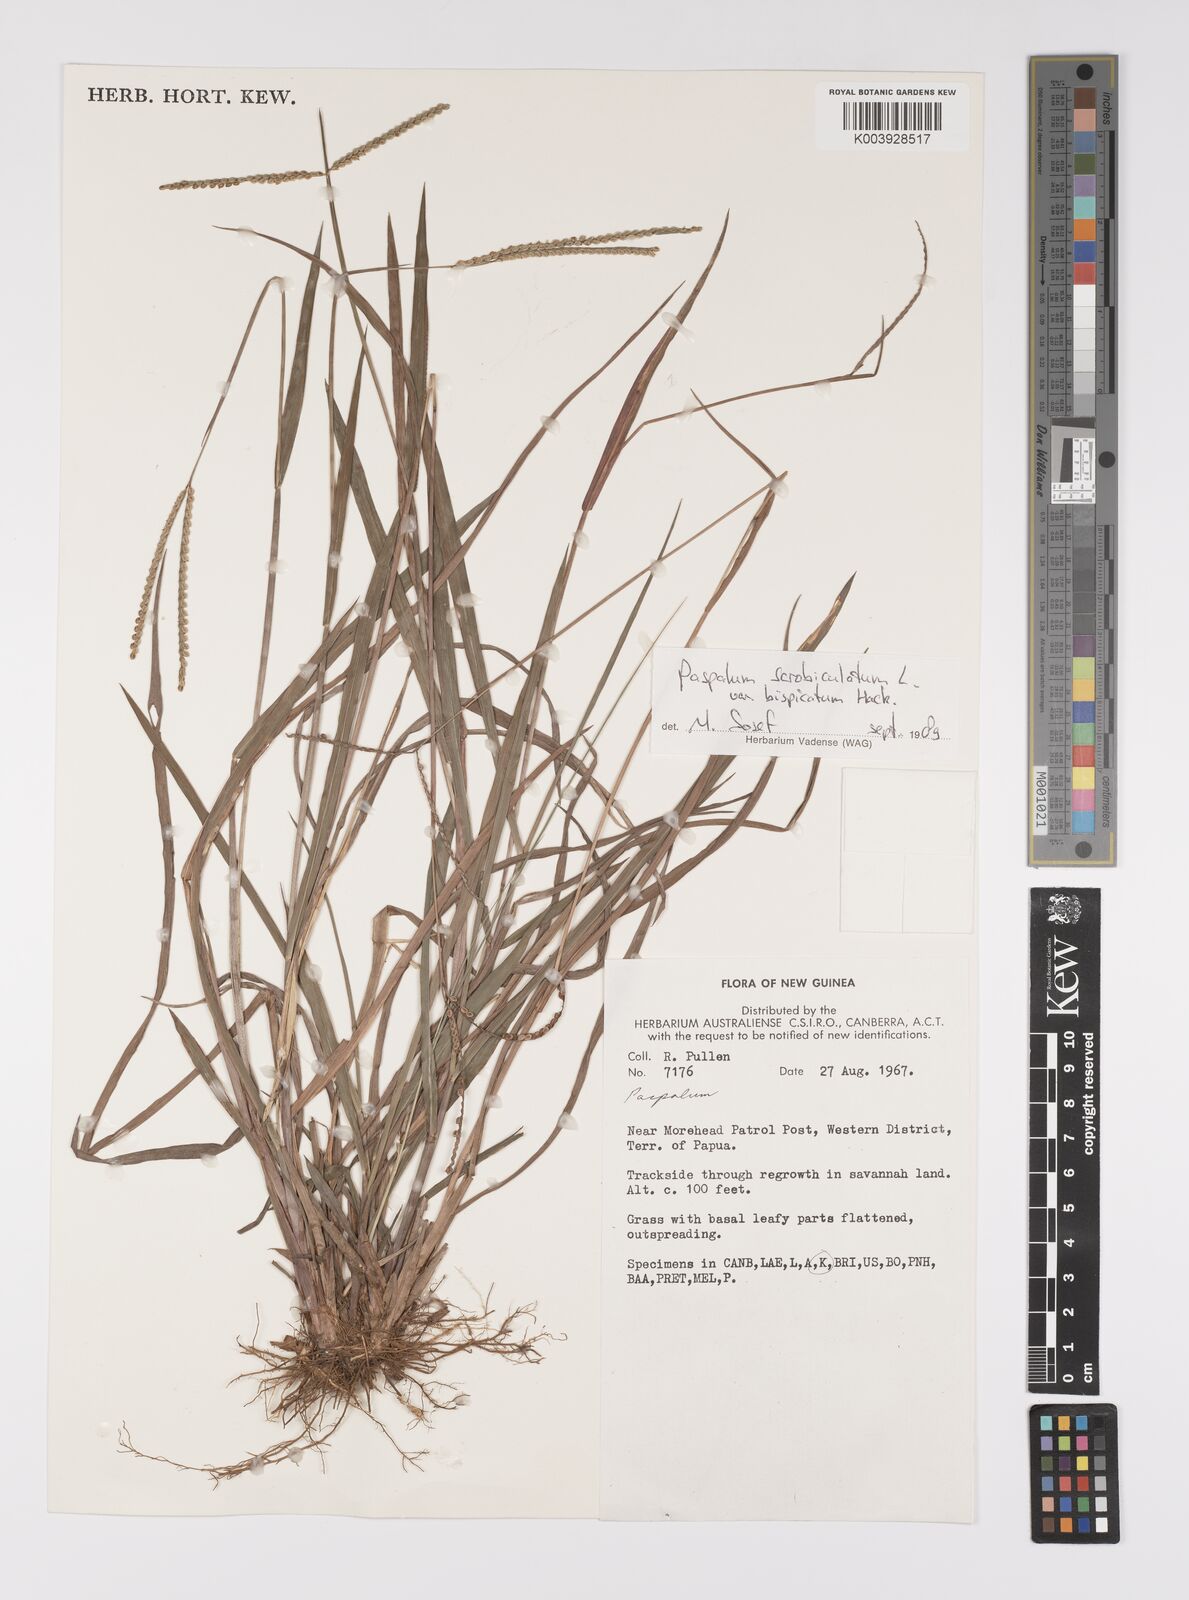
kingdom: Plantae
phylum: Tracheophyta
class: Liliopsida
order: Poales
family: Poaceae
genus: Paspalum
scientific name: Paspalum scrobiculatum
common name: Kodo millet
